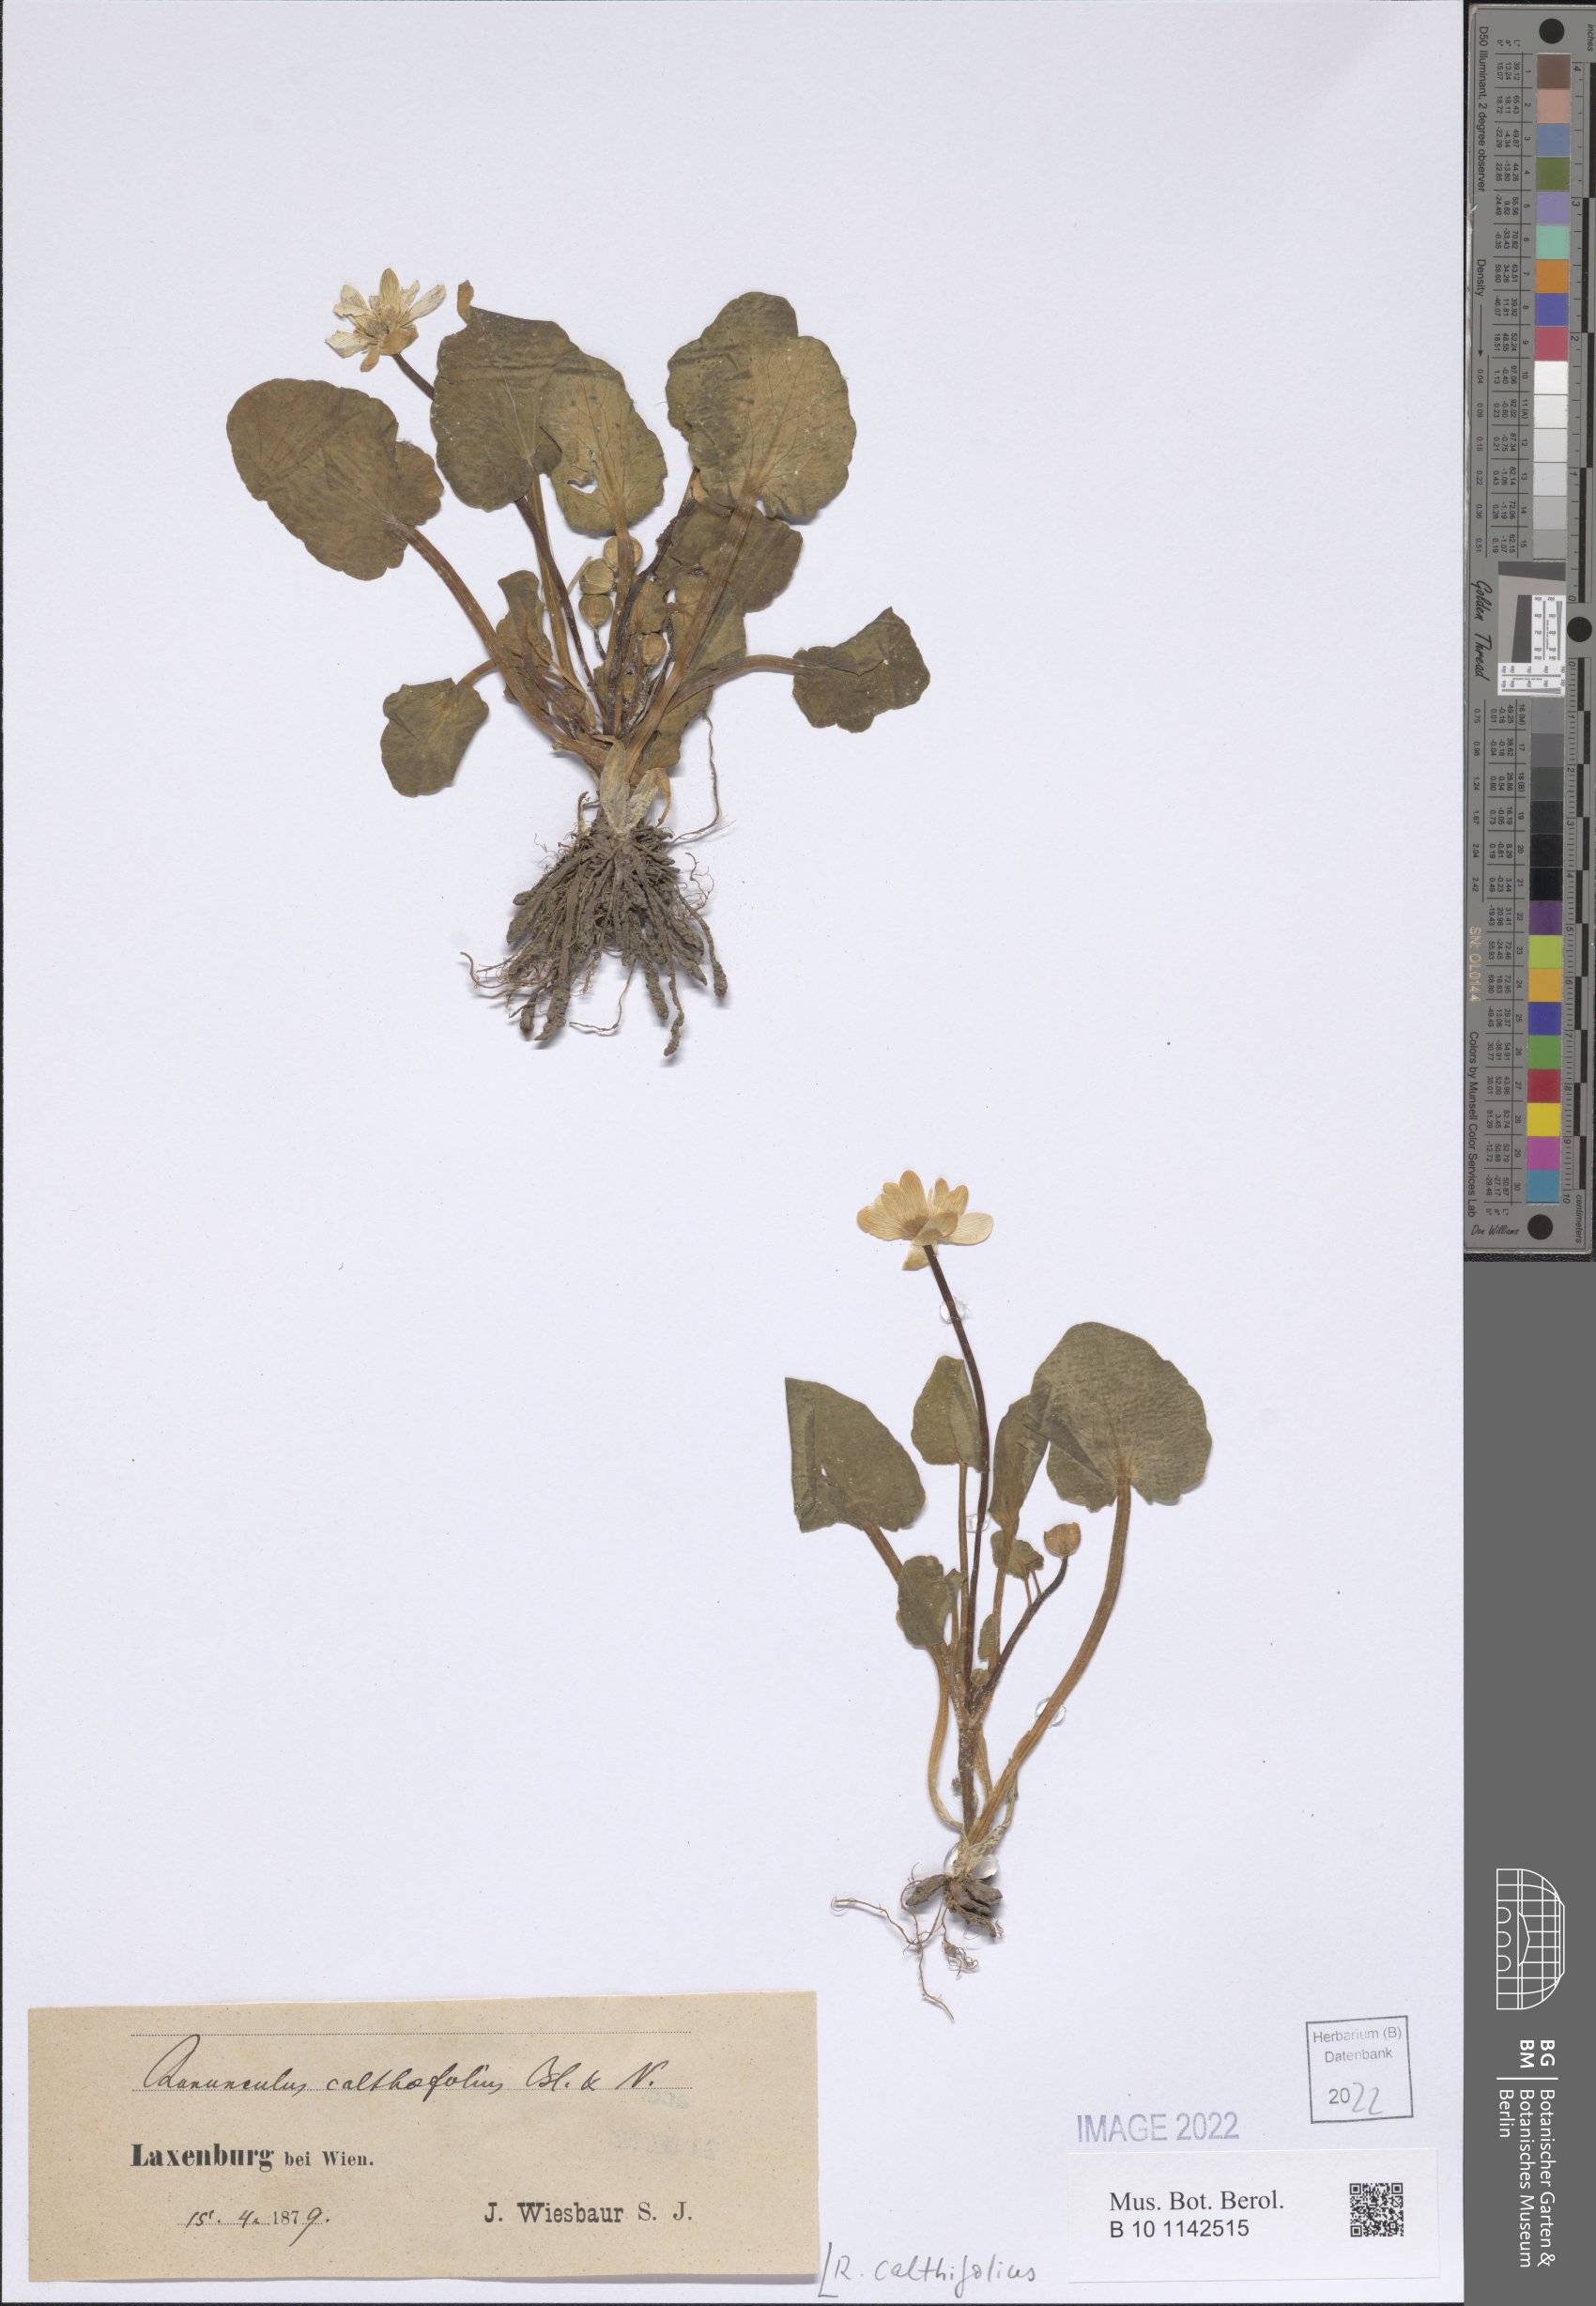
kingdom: Plantae
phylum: Tracheophyta
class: Magnoliopsida
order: Ranunculales
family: Ranunculaceae
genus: Ficaria
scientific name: Ficaria calthifolia
